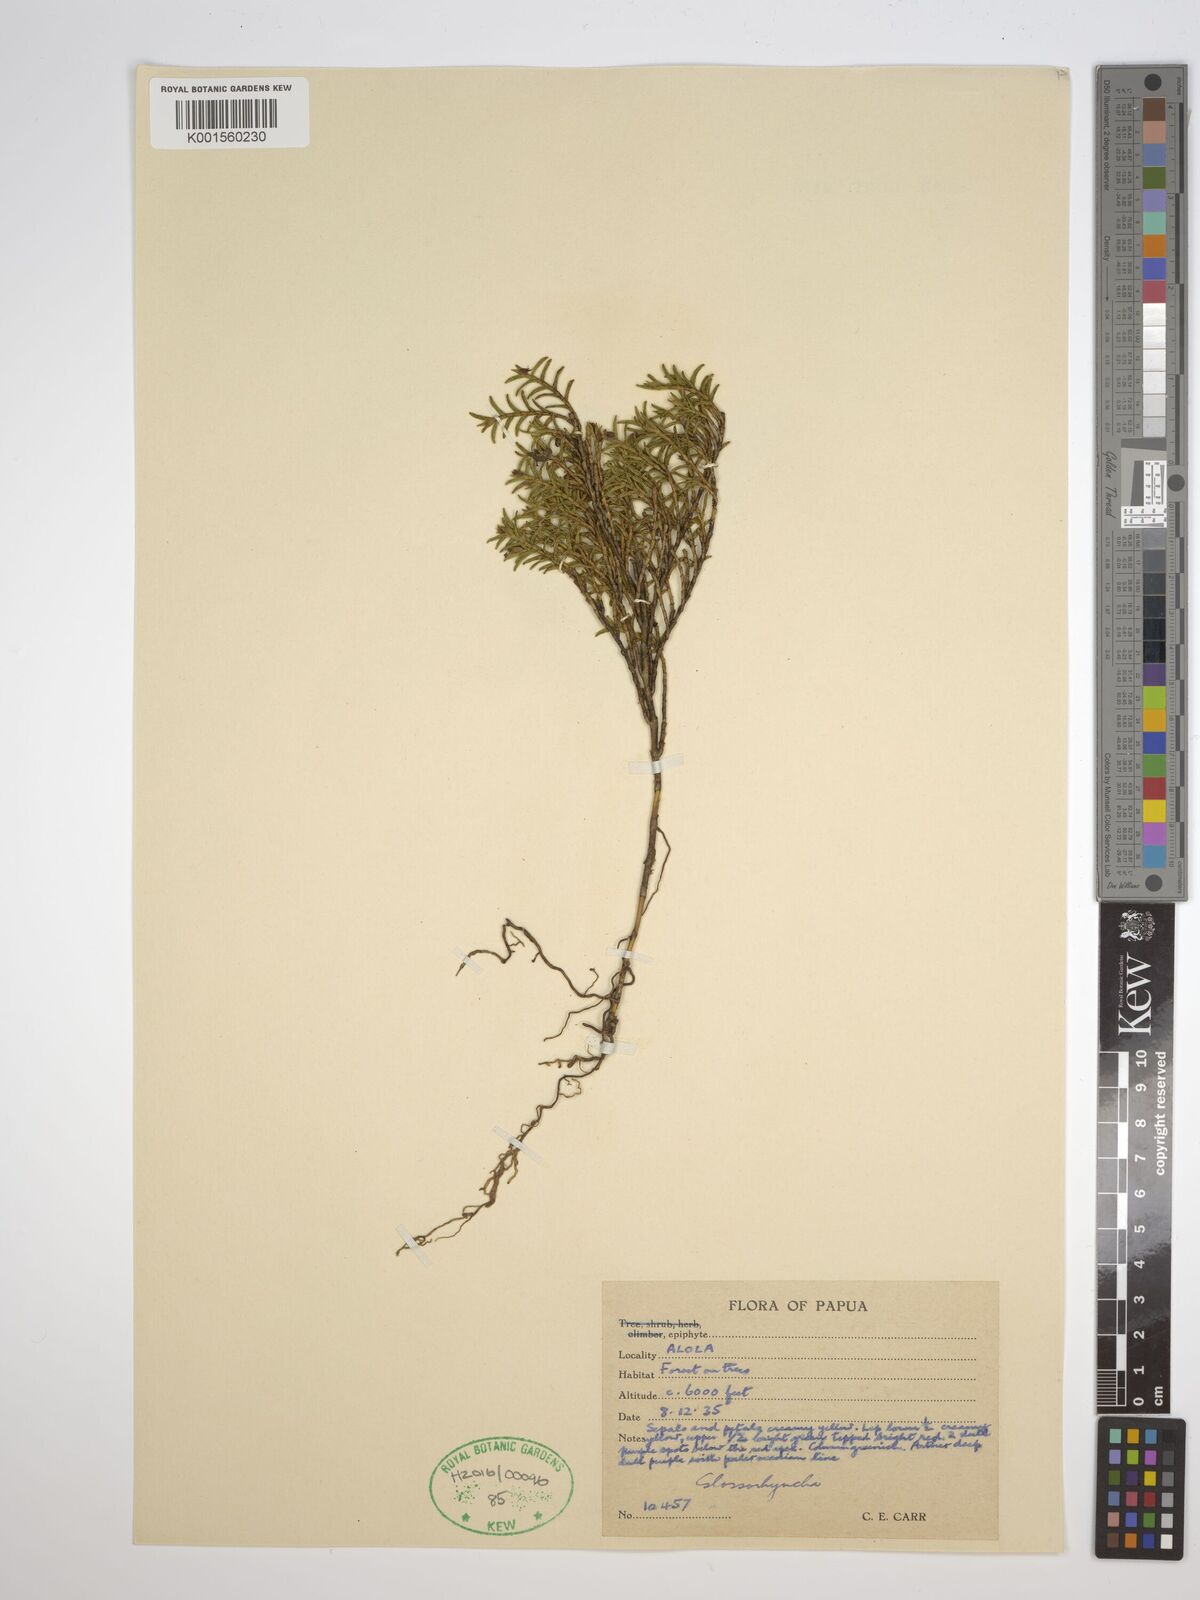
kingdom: Plantae
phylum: Tracheophyta
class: Liliopsida
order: Asparagales
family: Orchidaceae
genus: Glomera
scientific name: Glomera
